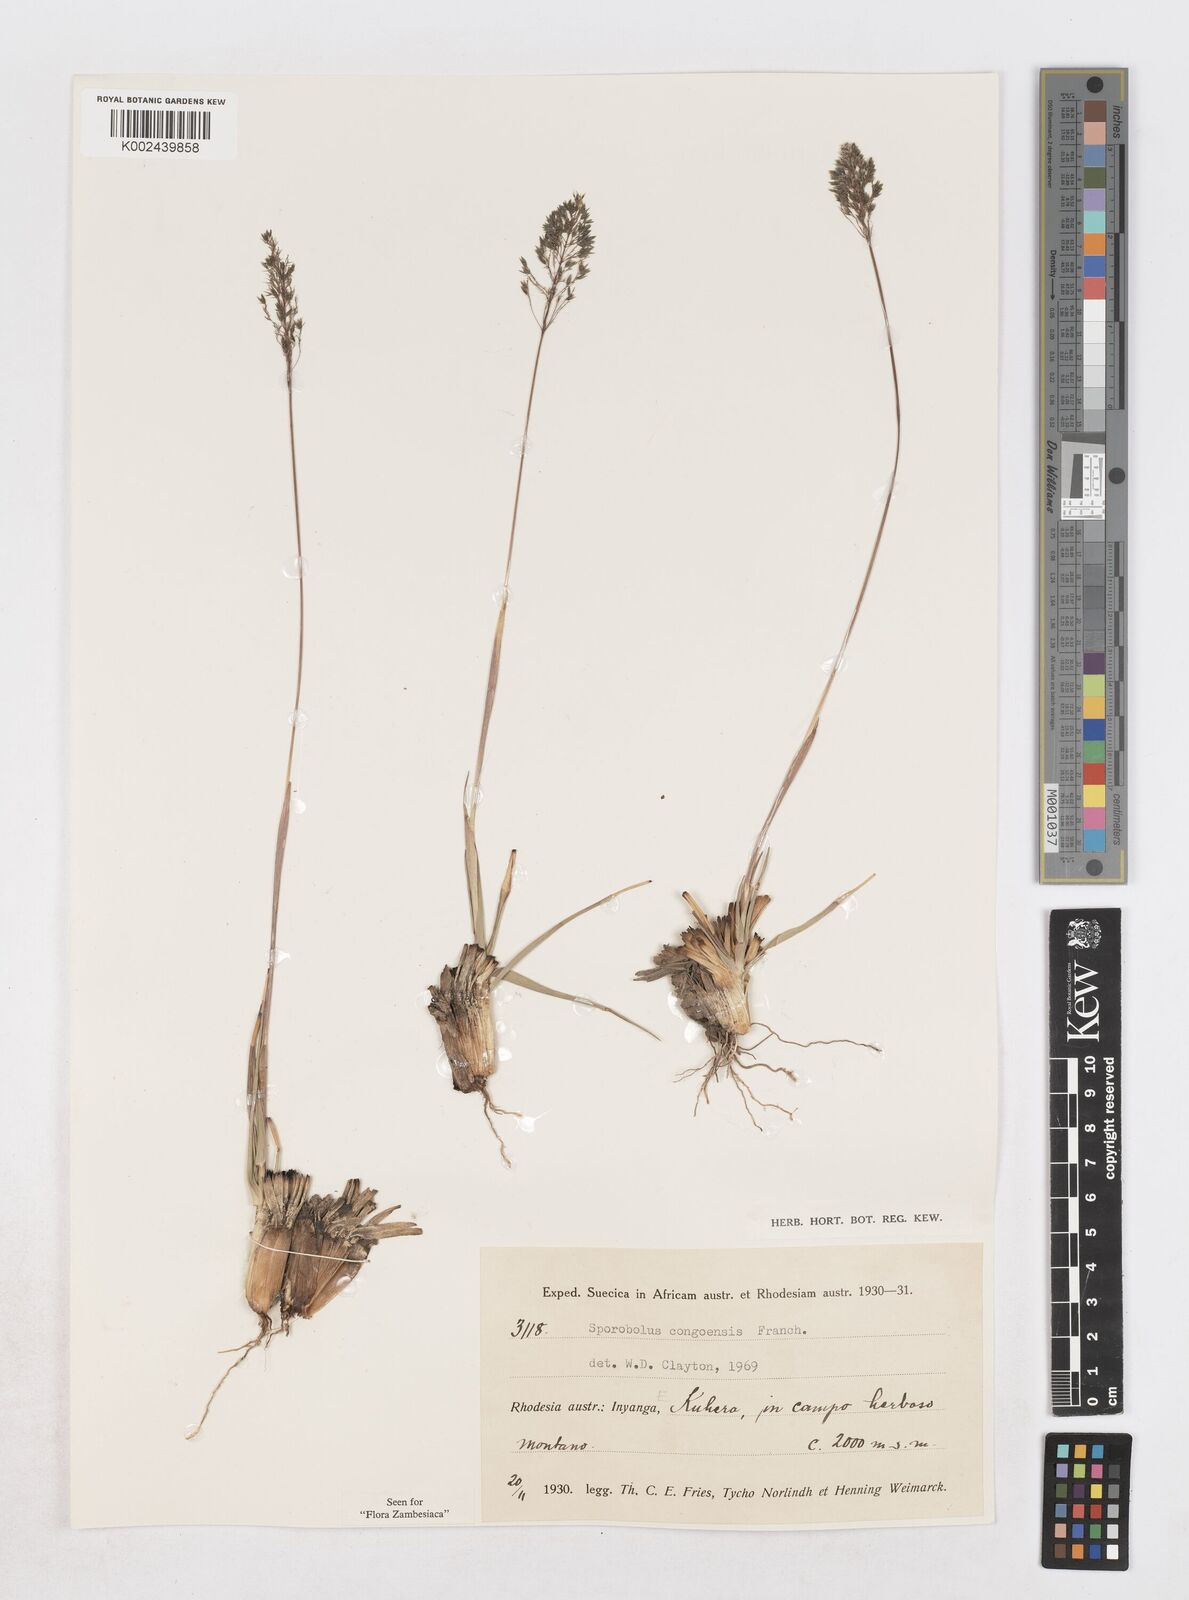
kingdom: Plantae
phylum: Tracheophyta
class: Liliopsida
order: Poales
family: Poaceae
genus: Sporobolus
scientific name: Sporobolus congoensis
